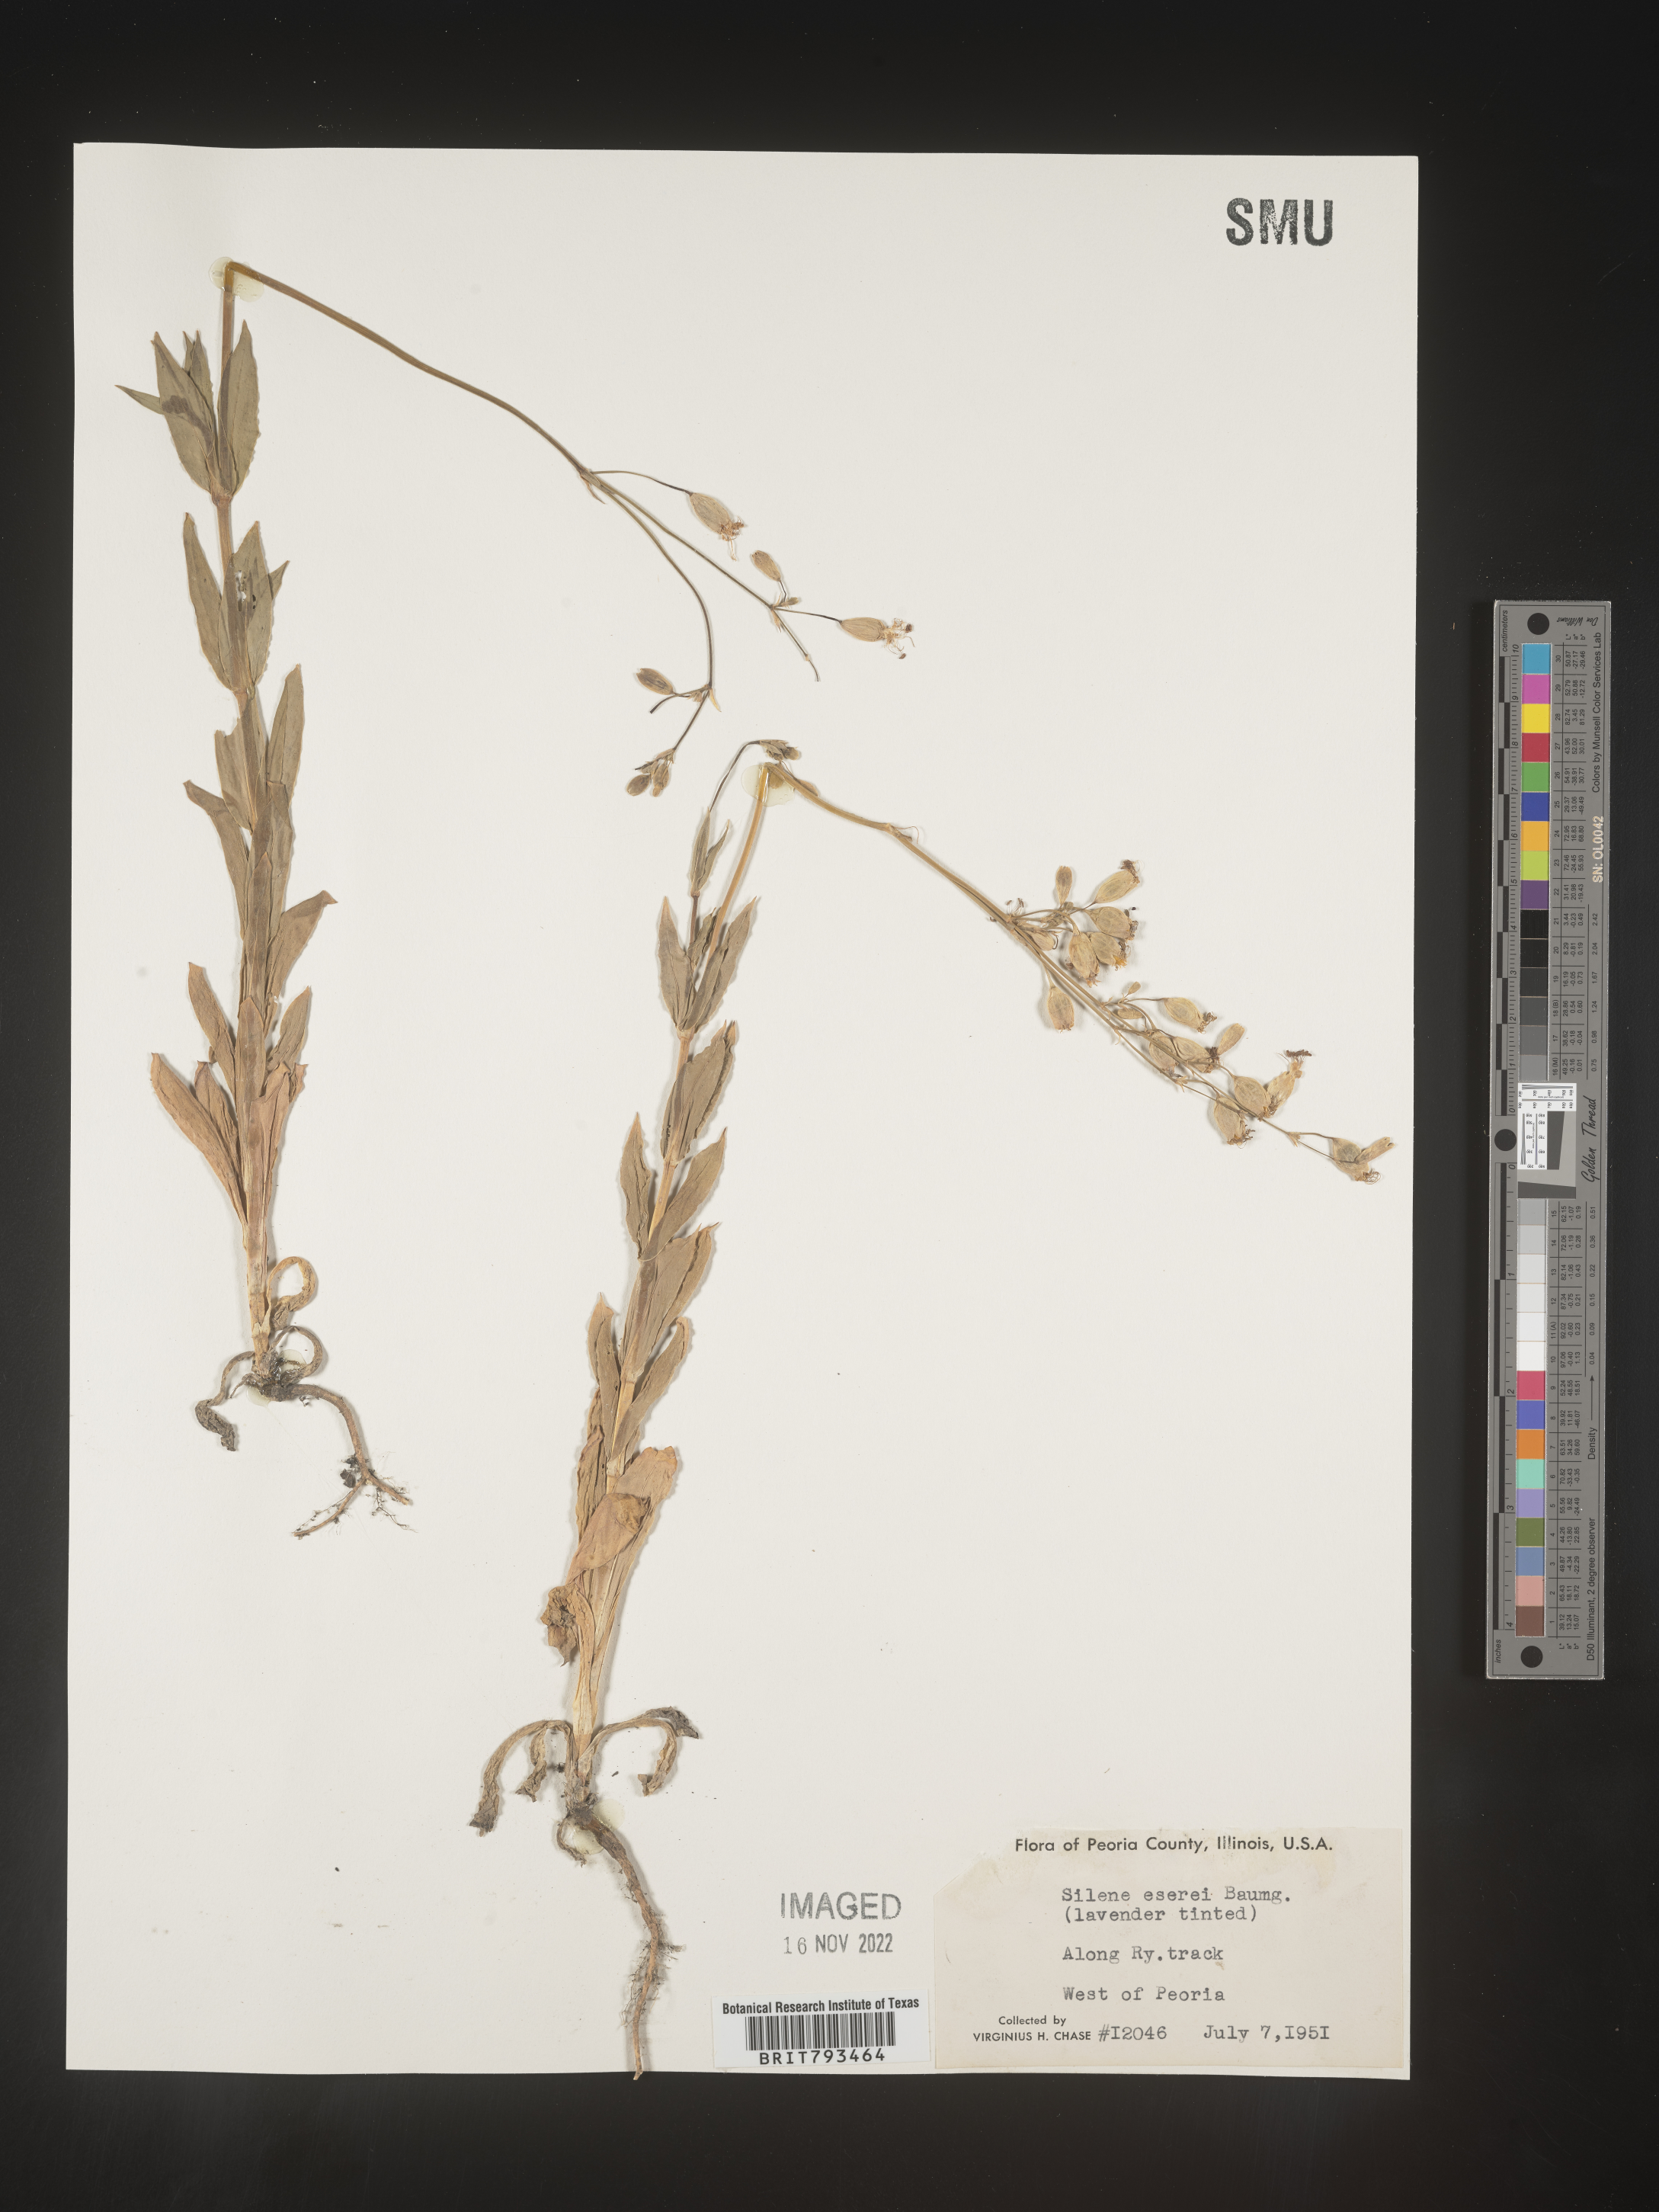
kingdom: Plantae
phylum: Tracheophyta
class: Magnoliopsida
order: Caryophyllales
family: Caryophyllaceae
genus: Silene
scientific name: Silene csereii
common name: Balkan catchfly
